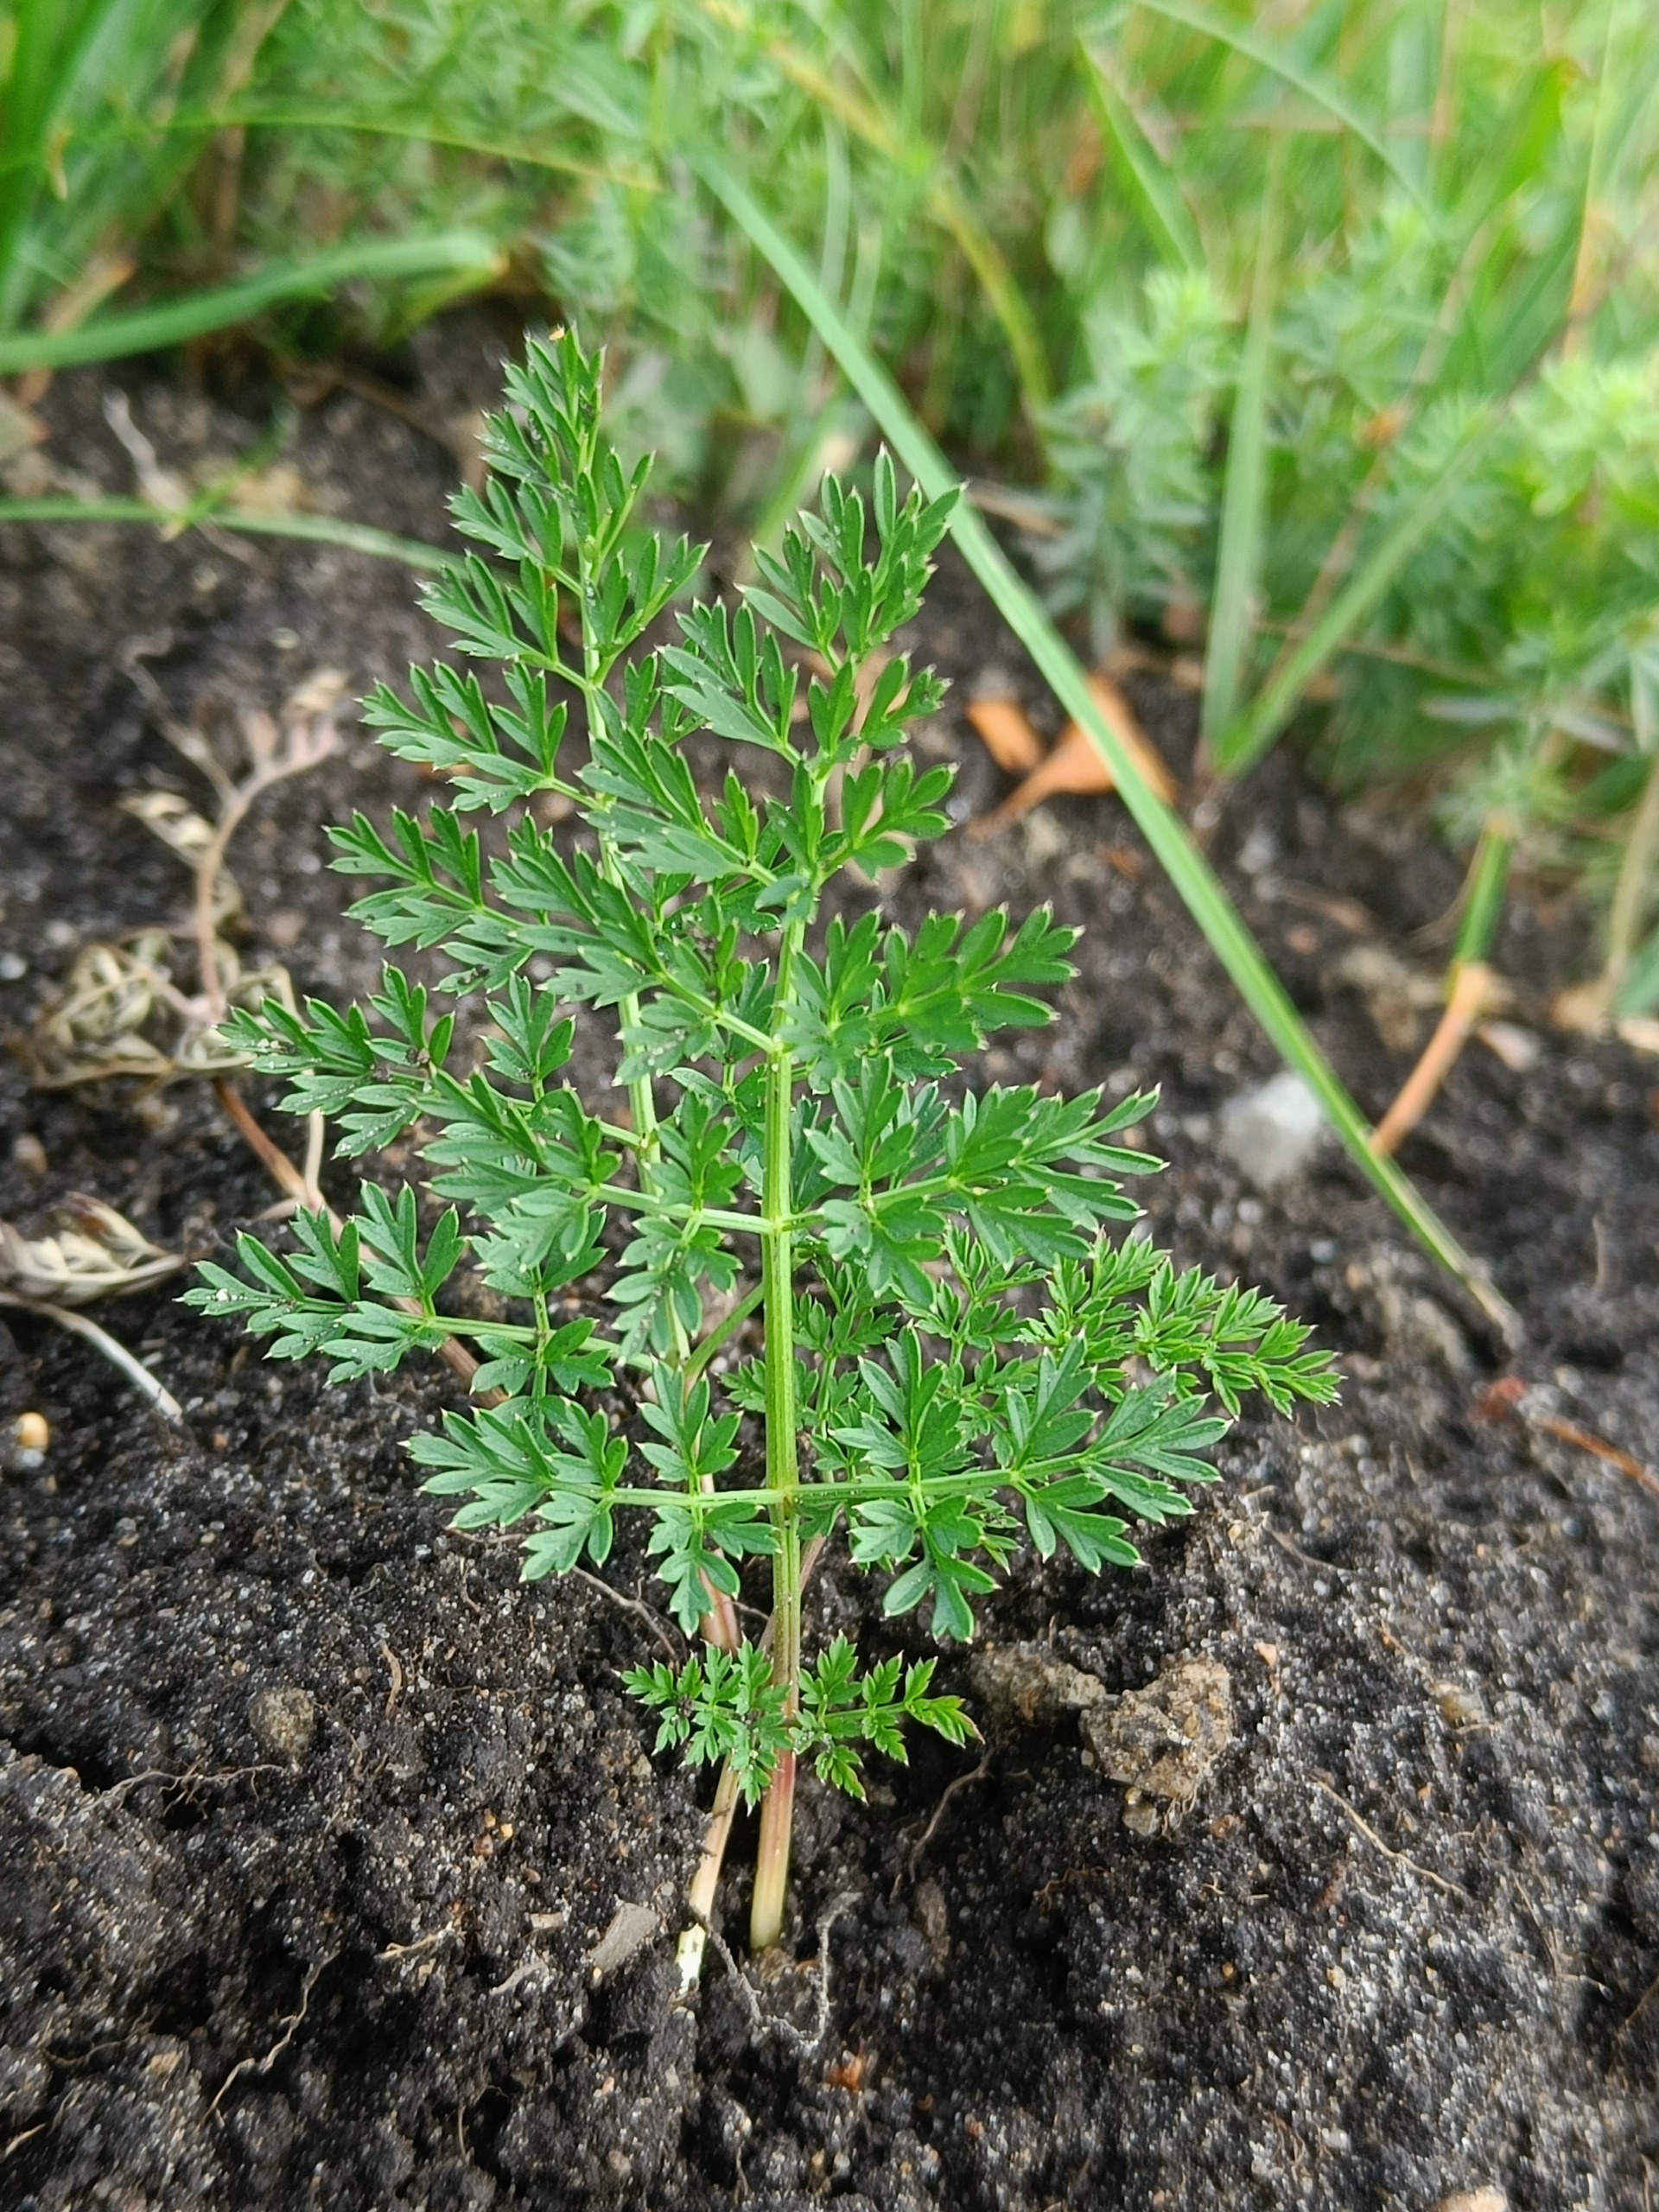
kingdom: Plantae
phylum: Tracheophyta
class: Magnoliopsida
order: Apiales
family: Apiaceae
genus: Selinum
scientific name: Selinum carvifolia
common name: Seline
